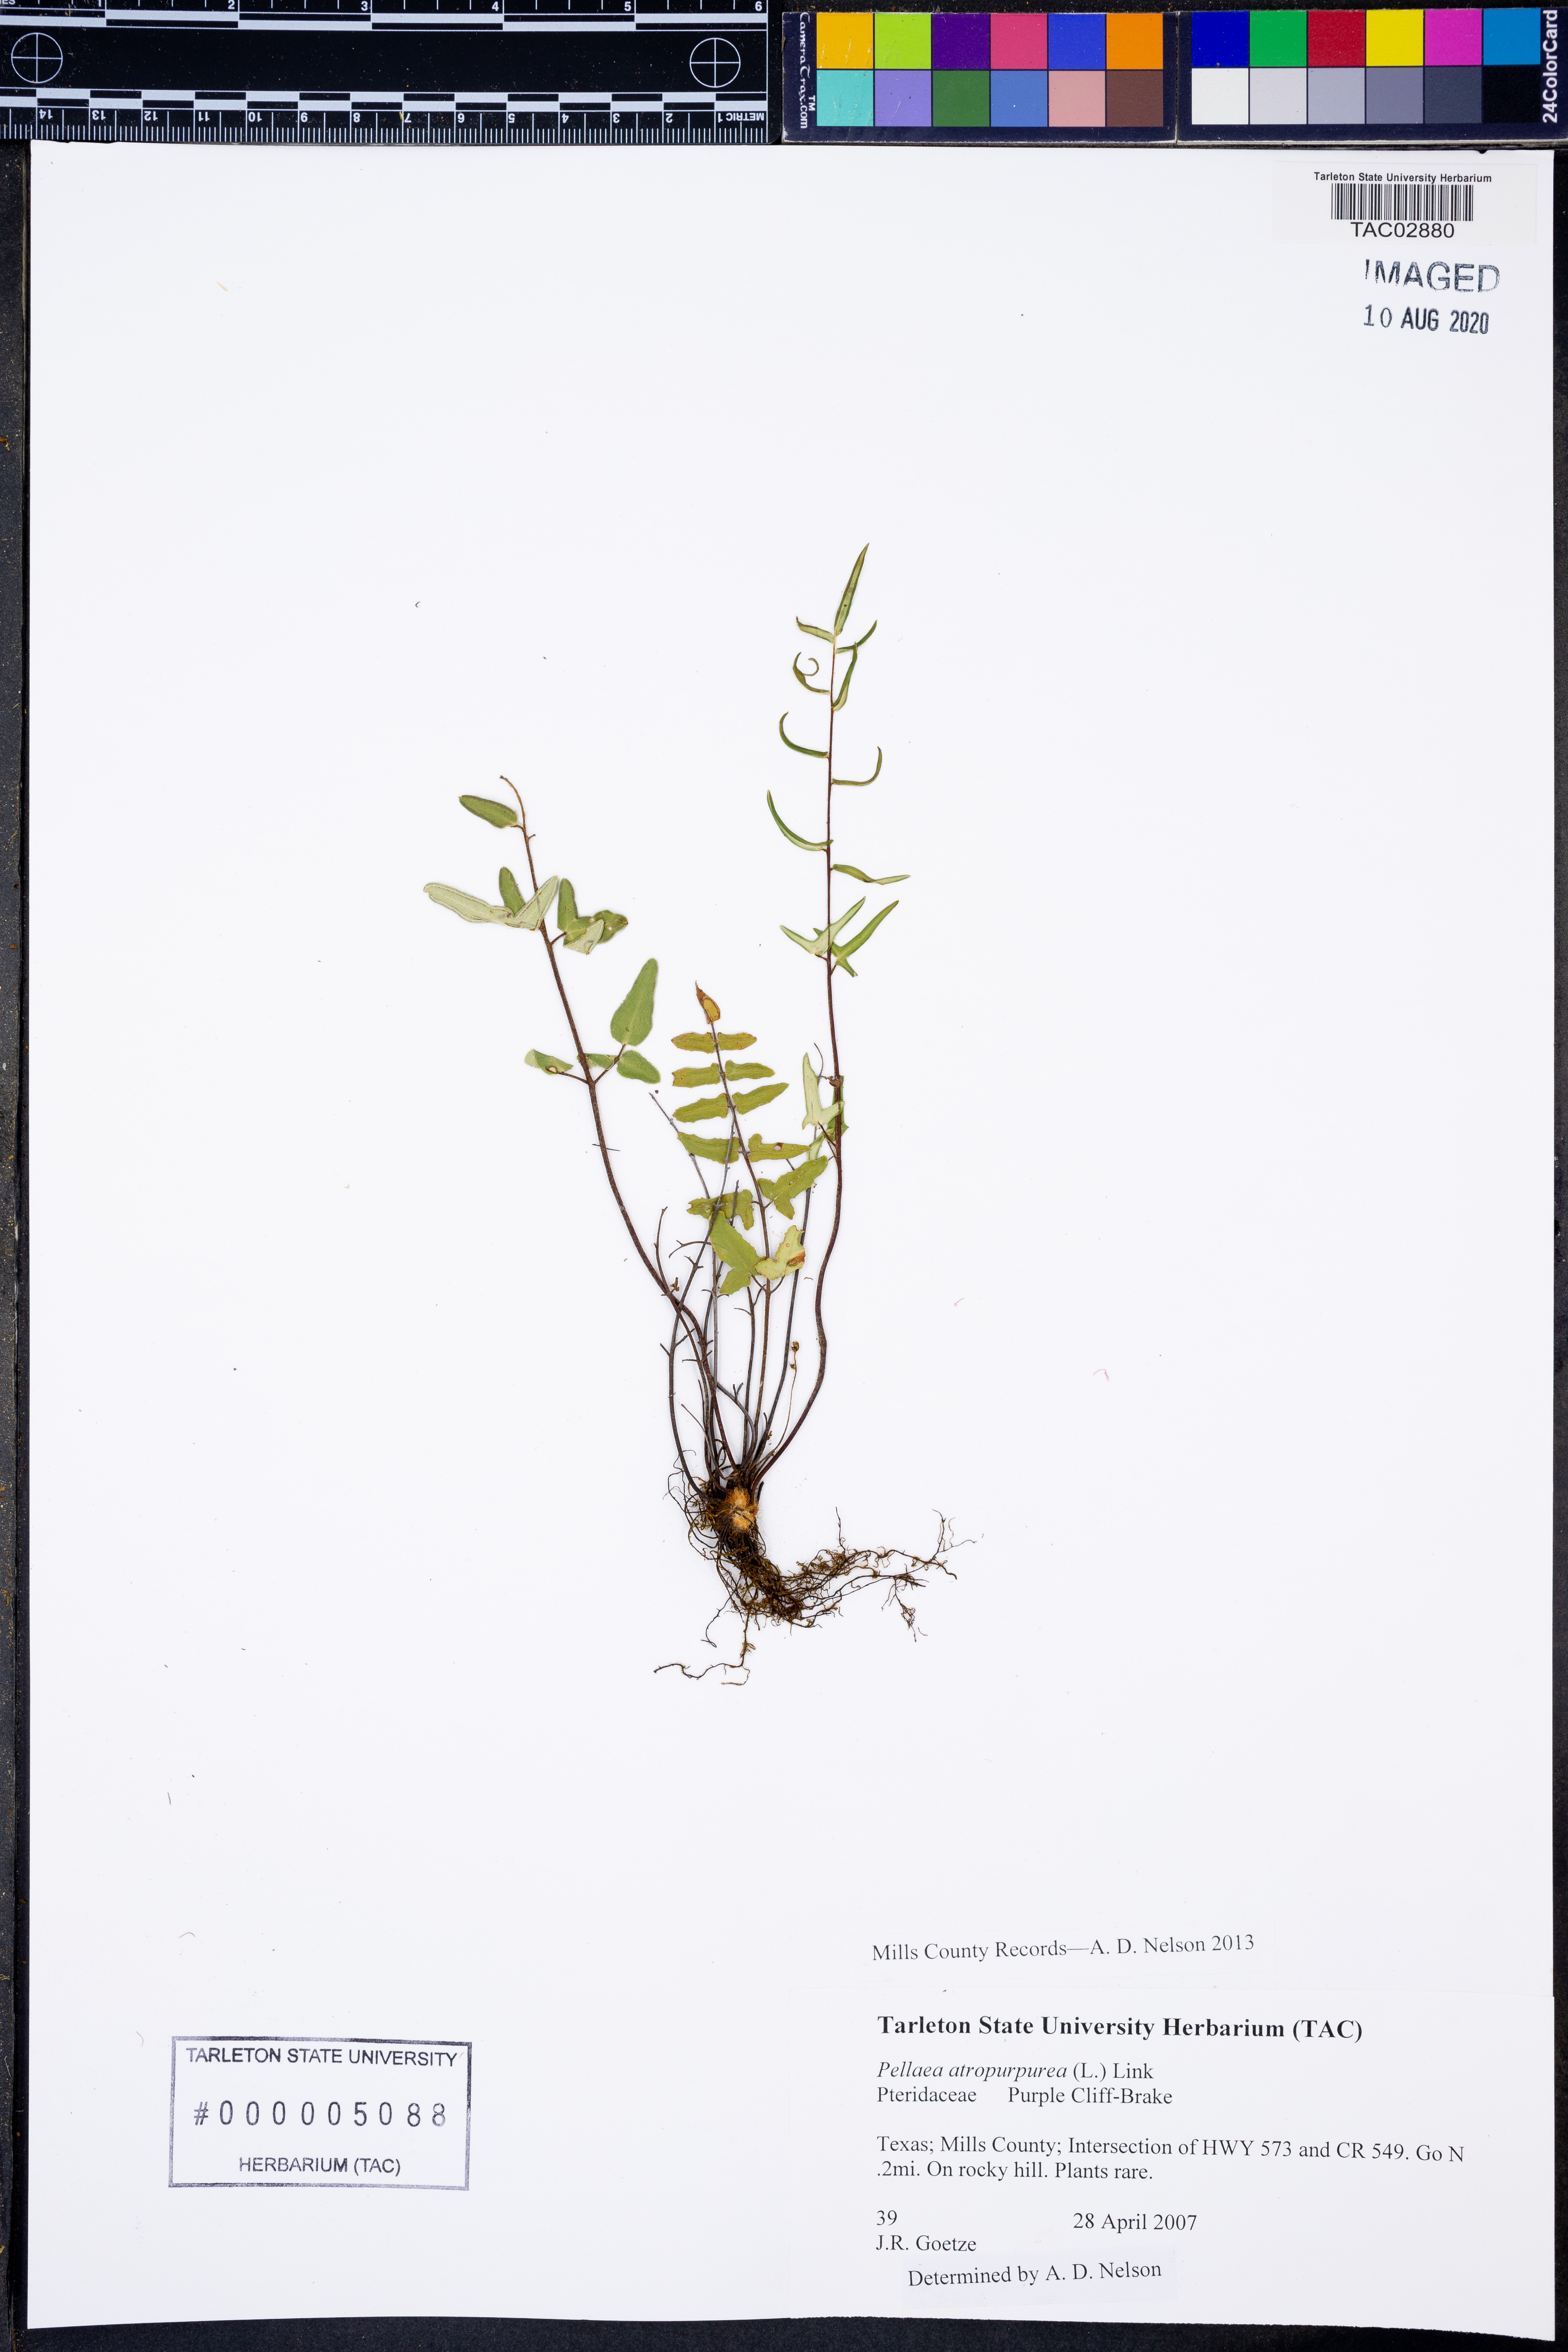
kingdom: Plantae
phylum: Tracheophyta
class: Polypodiopsida
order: Polypodiales
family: Pteridaceae
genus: Pellaea
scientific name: Pellaea atropurpurea
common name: Hairy cliffbrake
